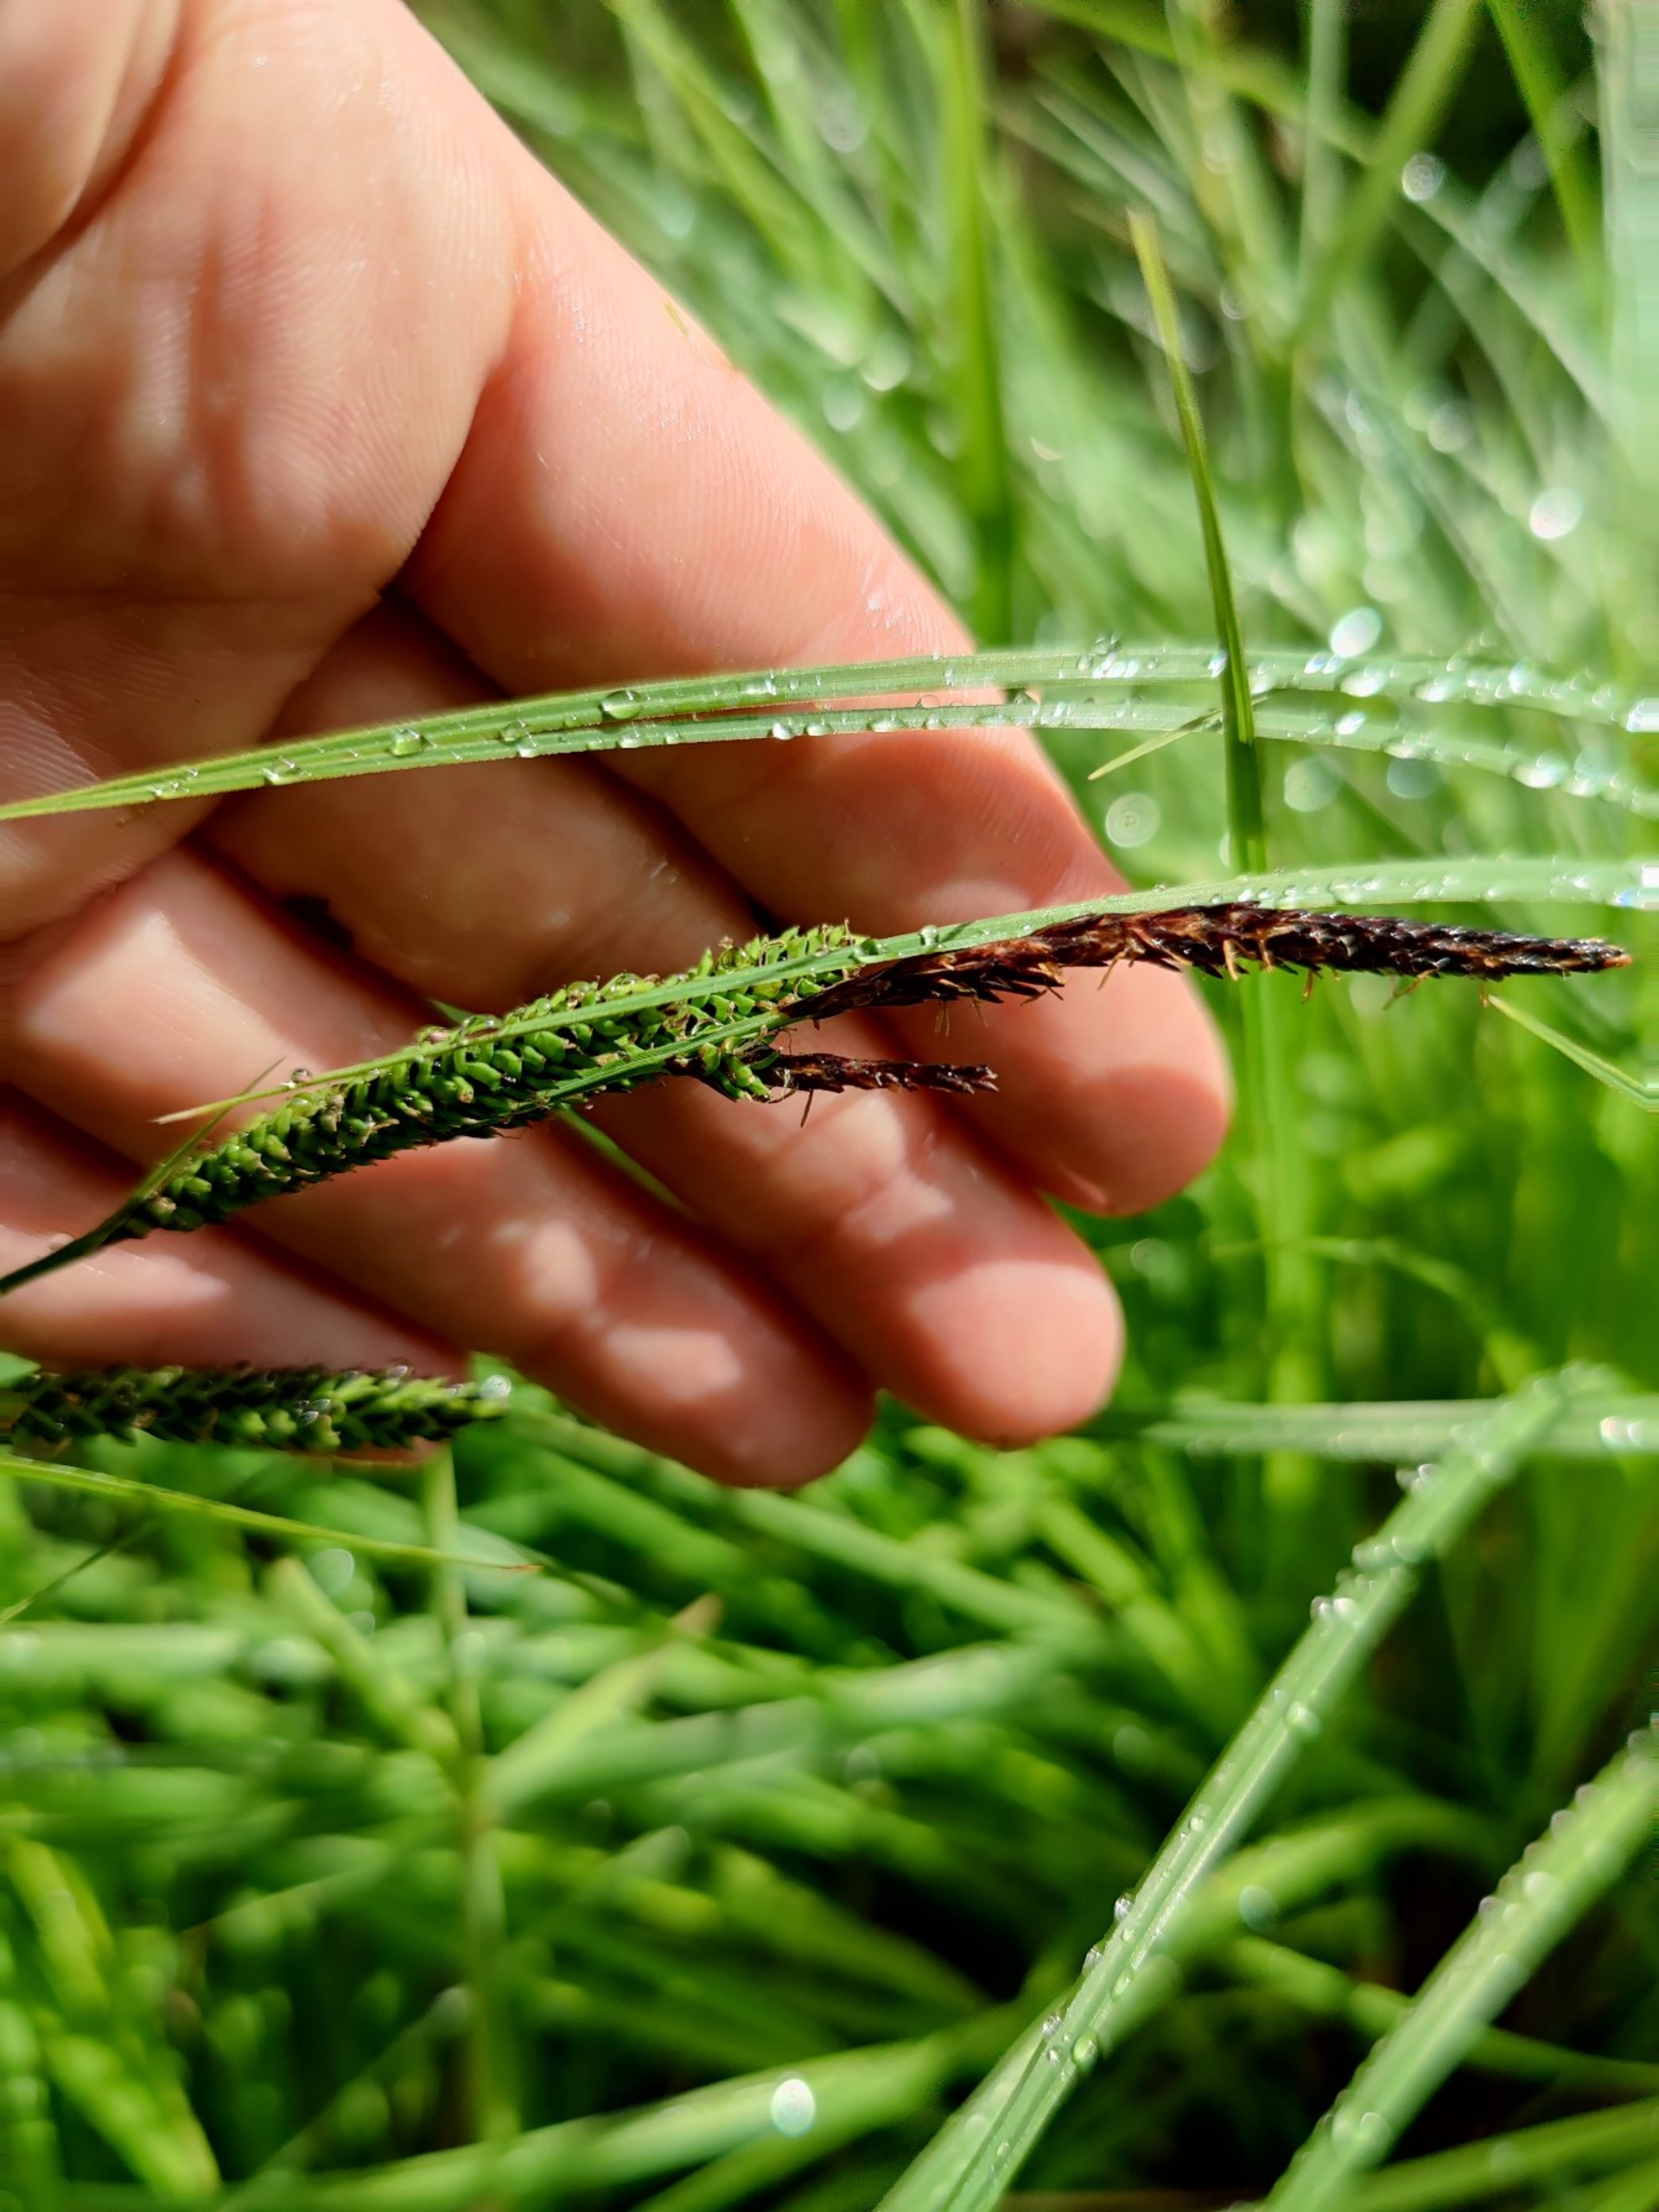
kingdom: Plantae
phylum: Tracheophyta
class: Liliopsida
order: Poales
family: Cyperaceae
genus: Carex
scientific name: Carex acuta
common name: Nikkende star
